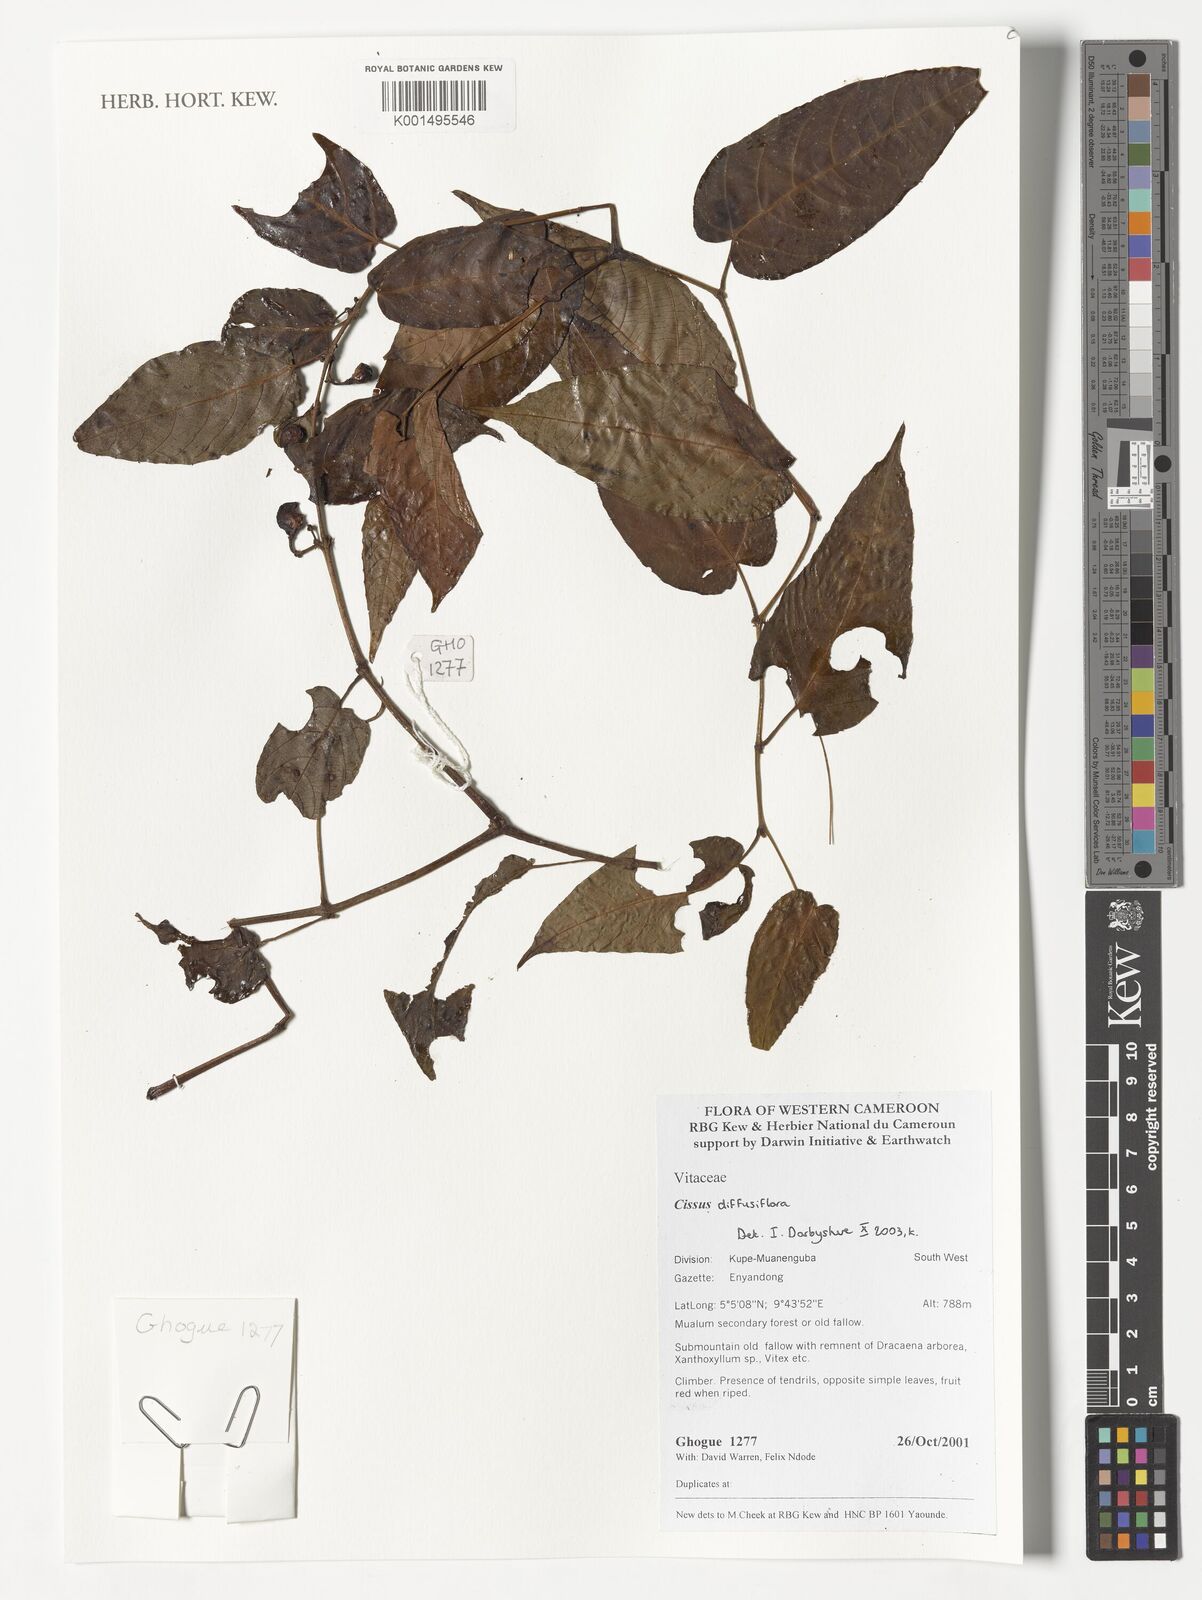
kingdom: Plantae
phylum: Tracheophyta
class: Magnoliopsida
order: Vitales
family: Vitaceae
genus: Cissus
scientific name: Cissus diffusiflora
